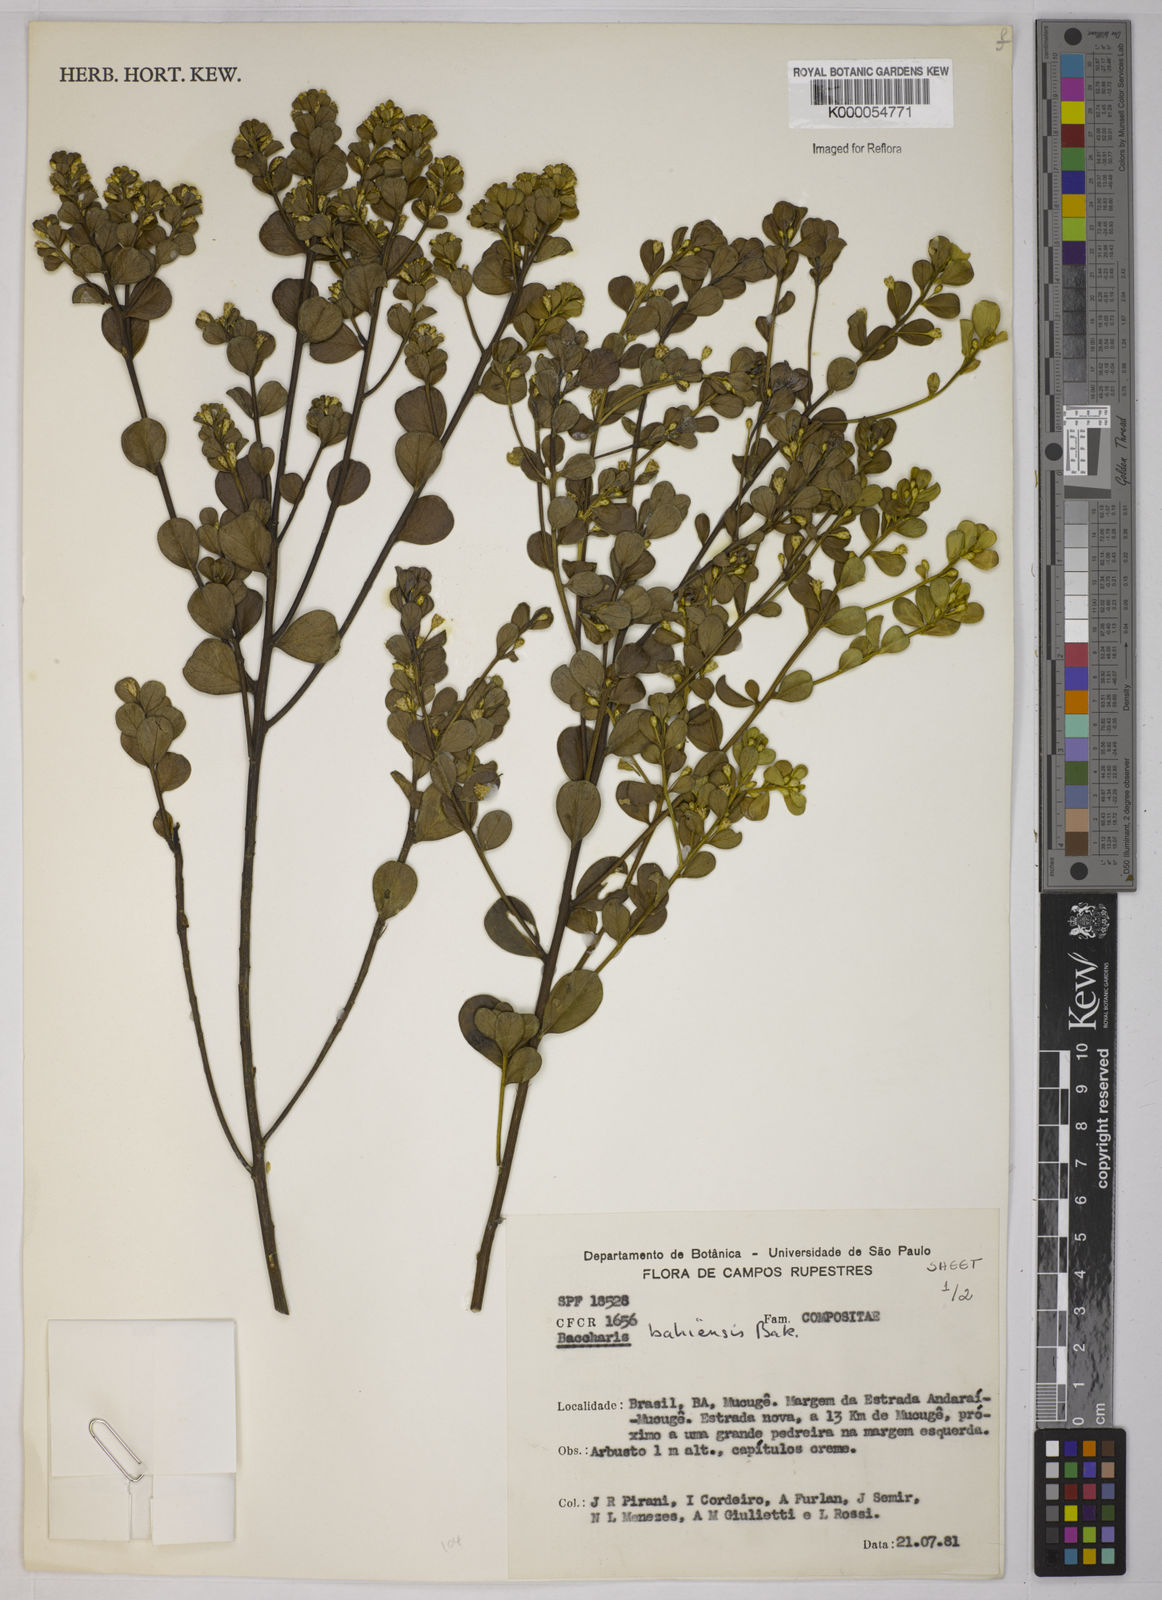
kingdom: Plantae
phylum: Tracheophyta
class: Magnoliopsida
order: Asterales
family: Asteraceae
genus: Baccharis
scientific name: Baccharis
